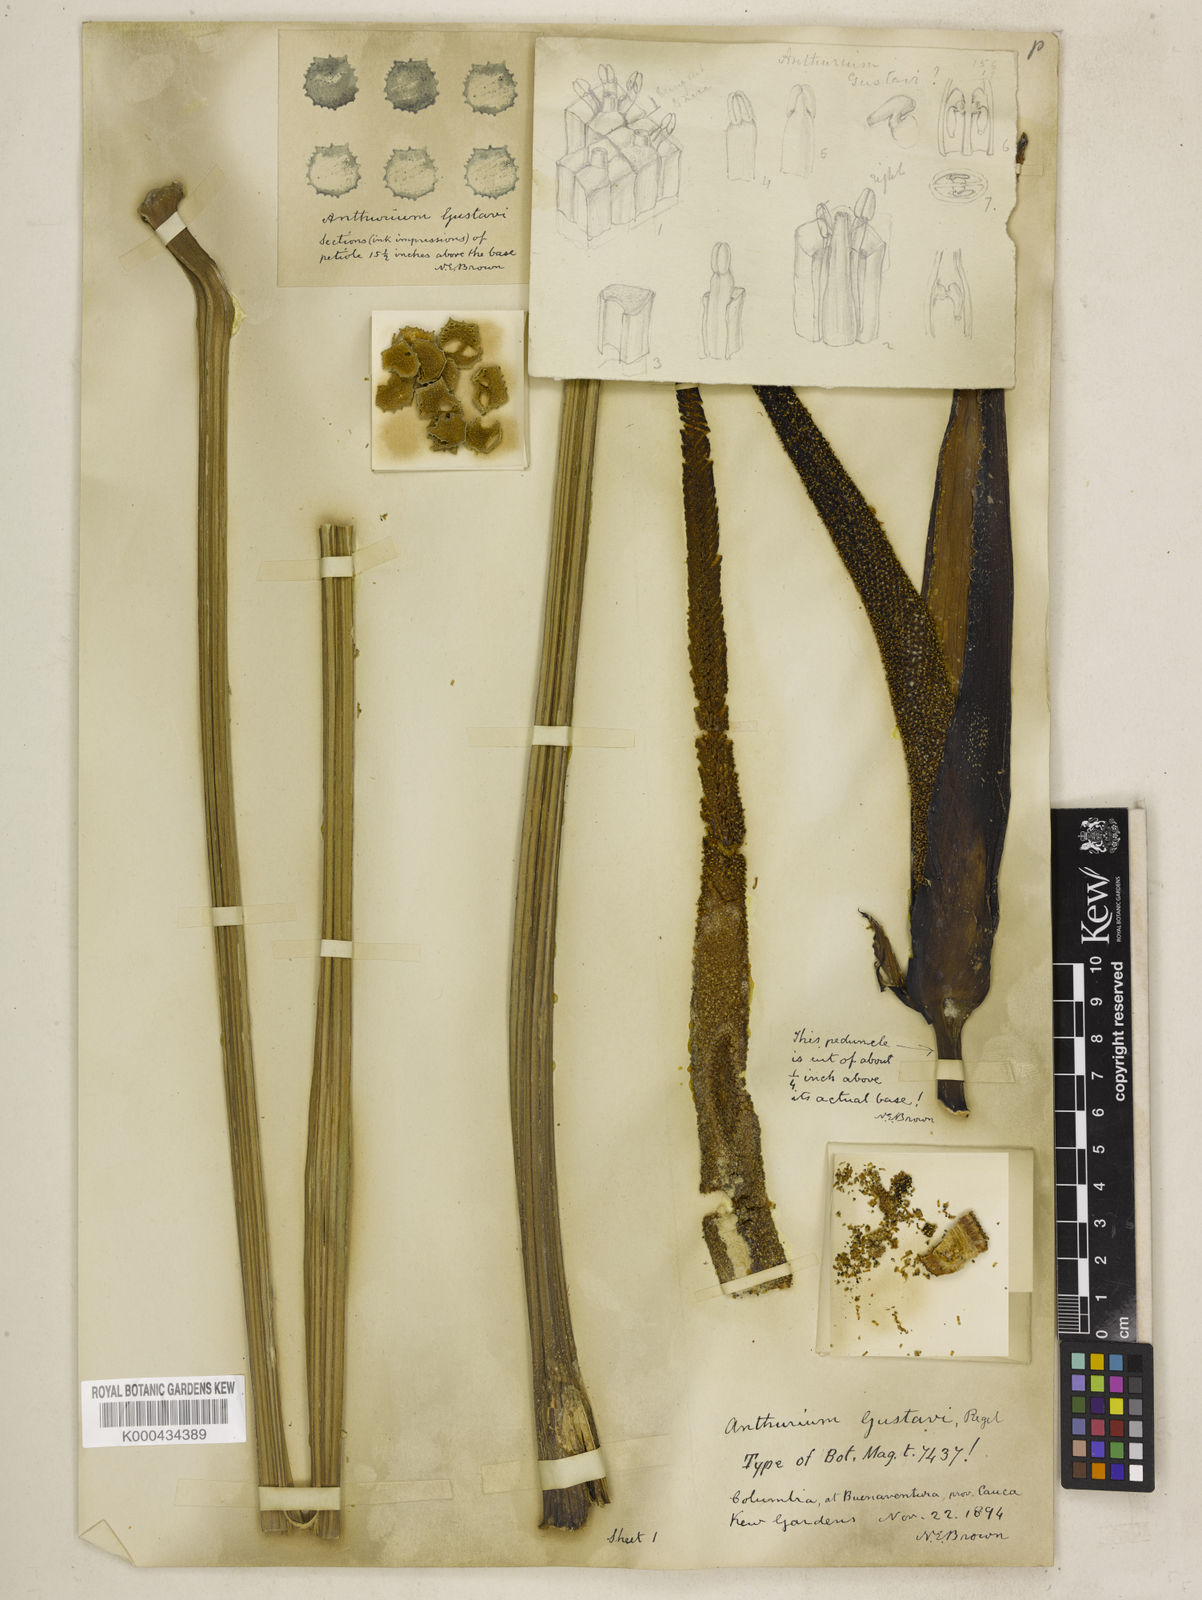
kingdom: Plantae
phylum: Tracheophyta
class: Liliopsida
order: Alismatales
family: Araceae
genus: Anthurium
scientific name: Anthurium gustavii
